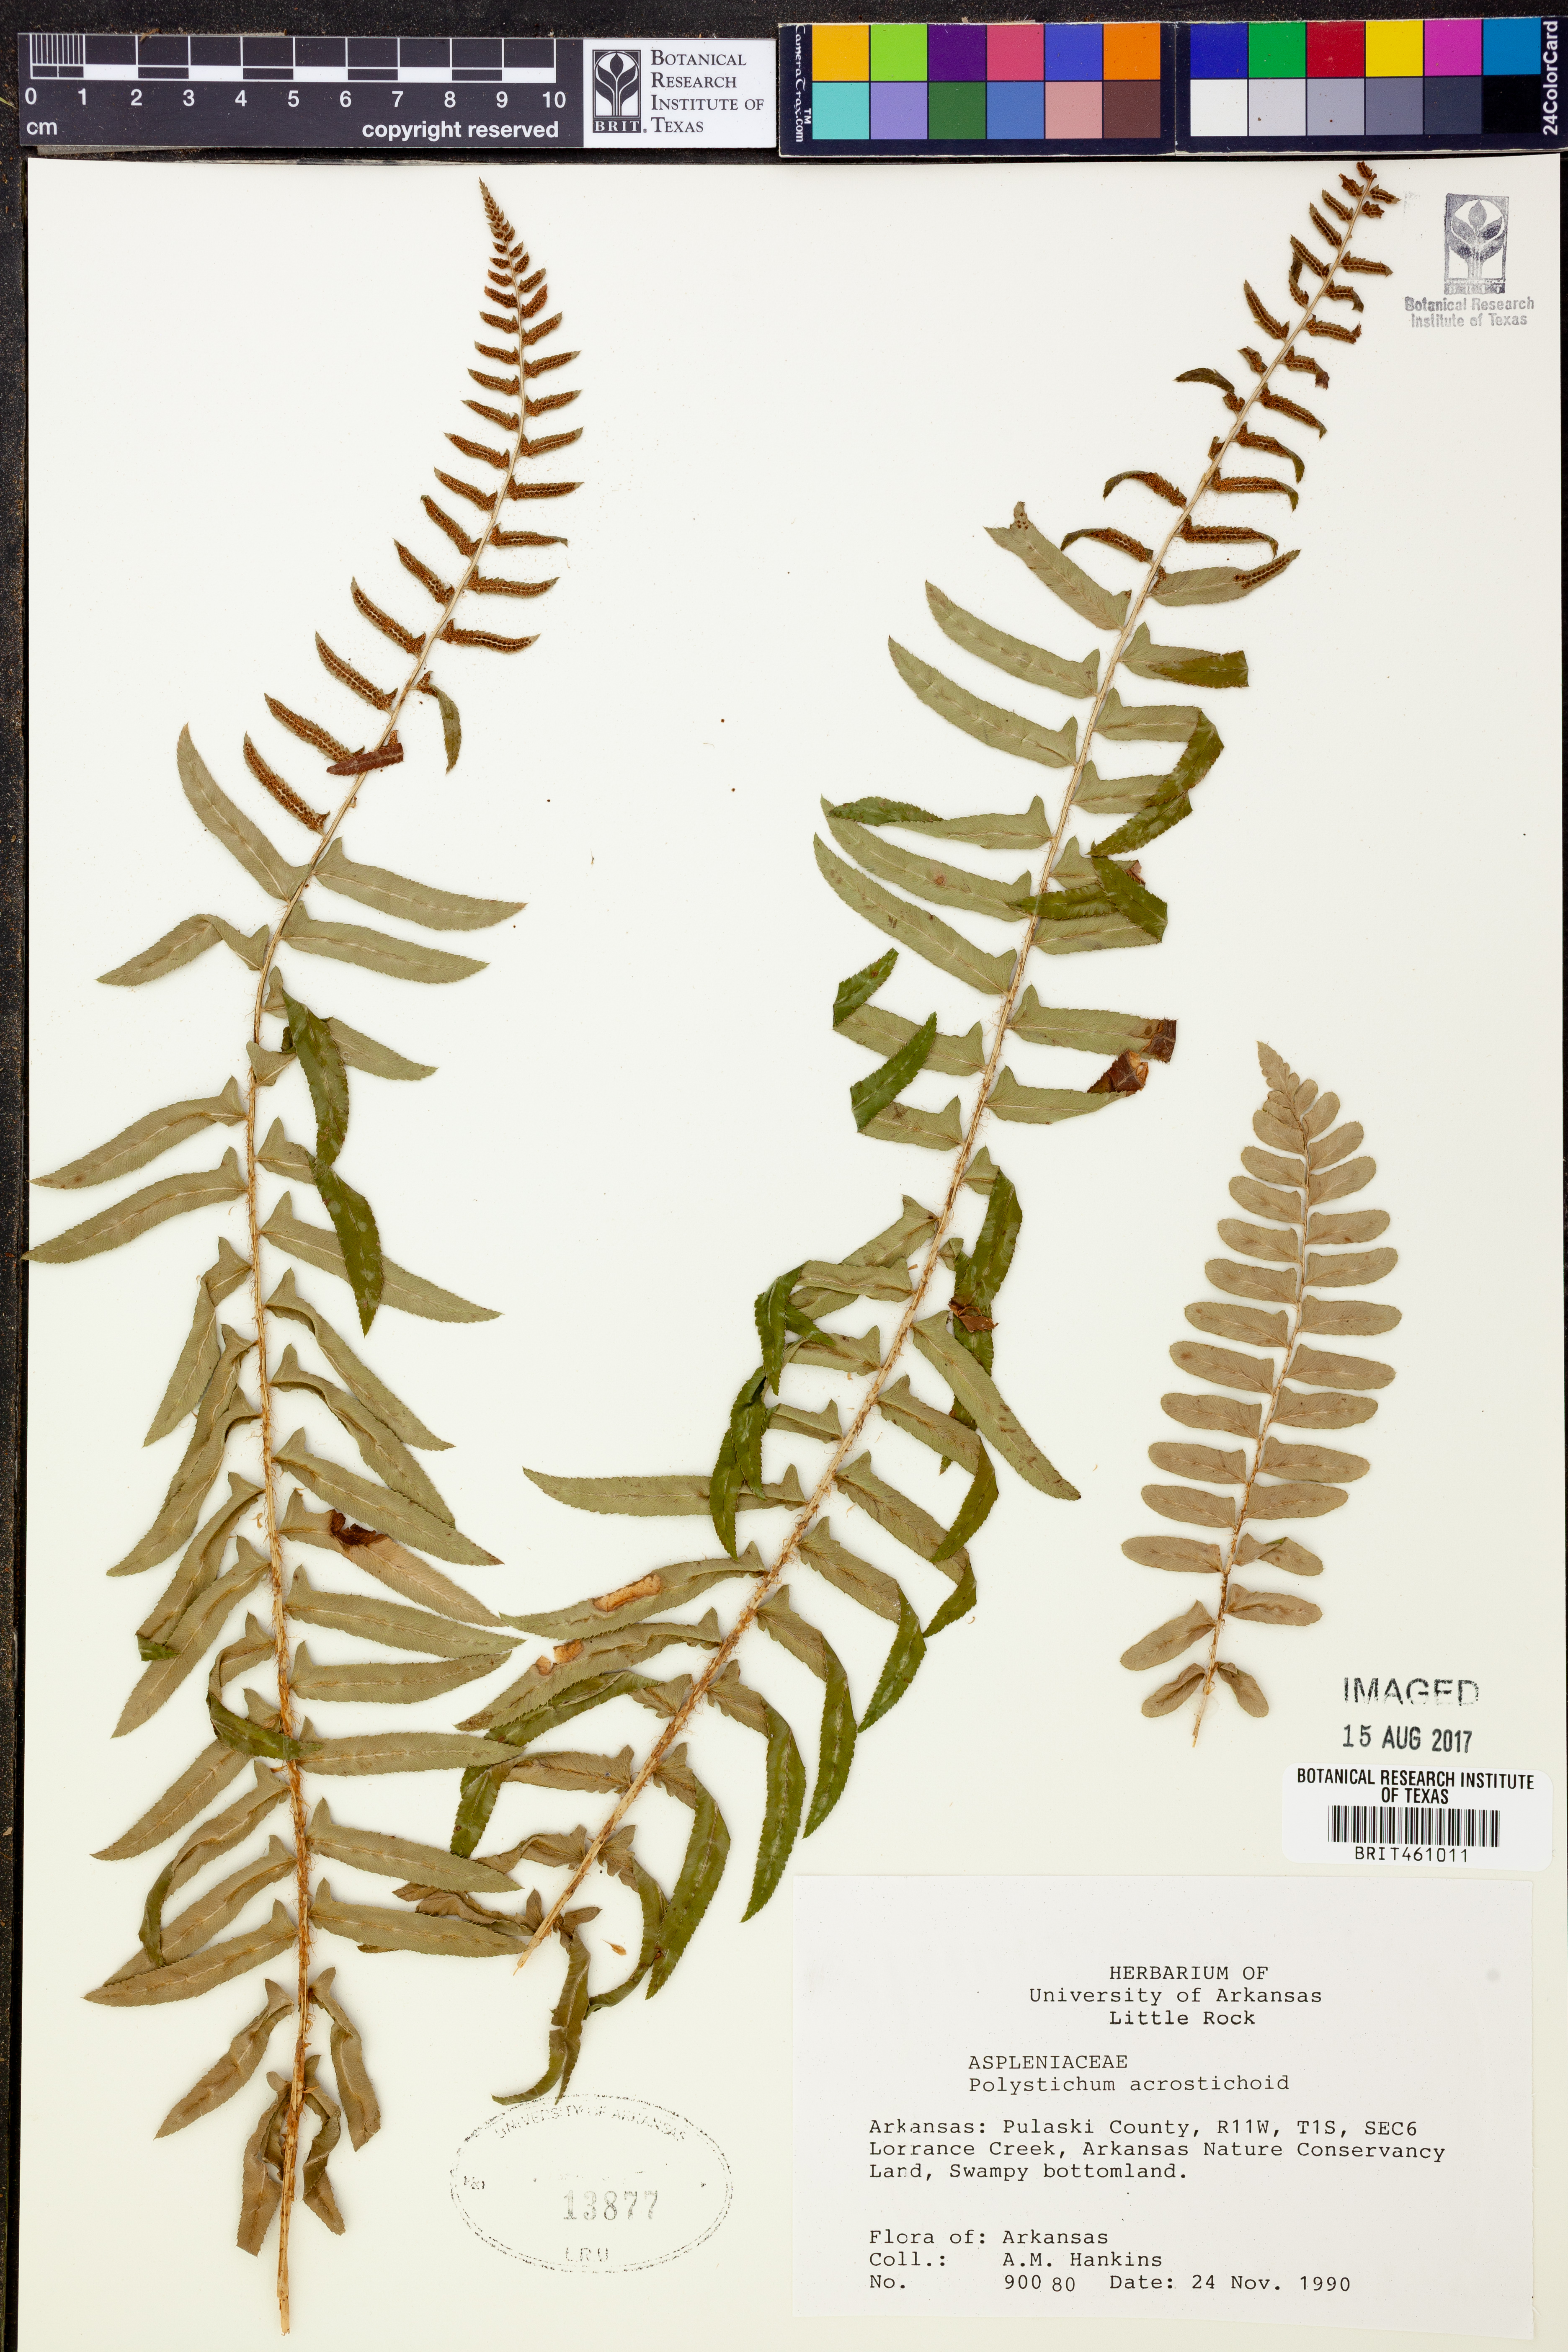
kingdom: Plantae
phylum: Tracheophyta
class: Polypodiopsida
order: Polypodiales
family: Dryopteridaceae
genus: Polystichum
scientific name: Polystichum acrostichoides
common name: Christmas fern
